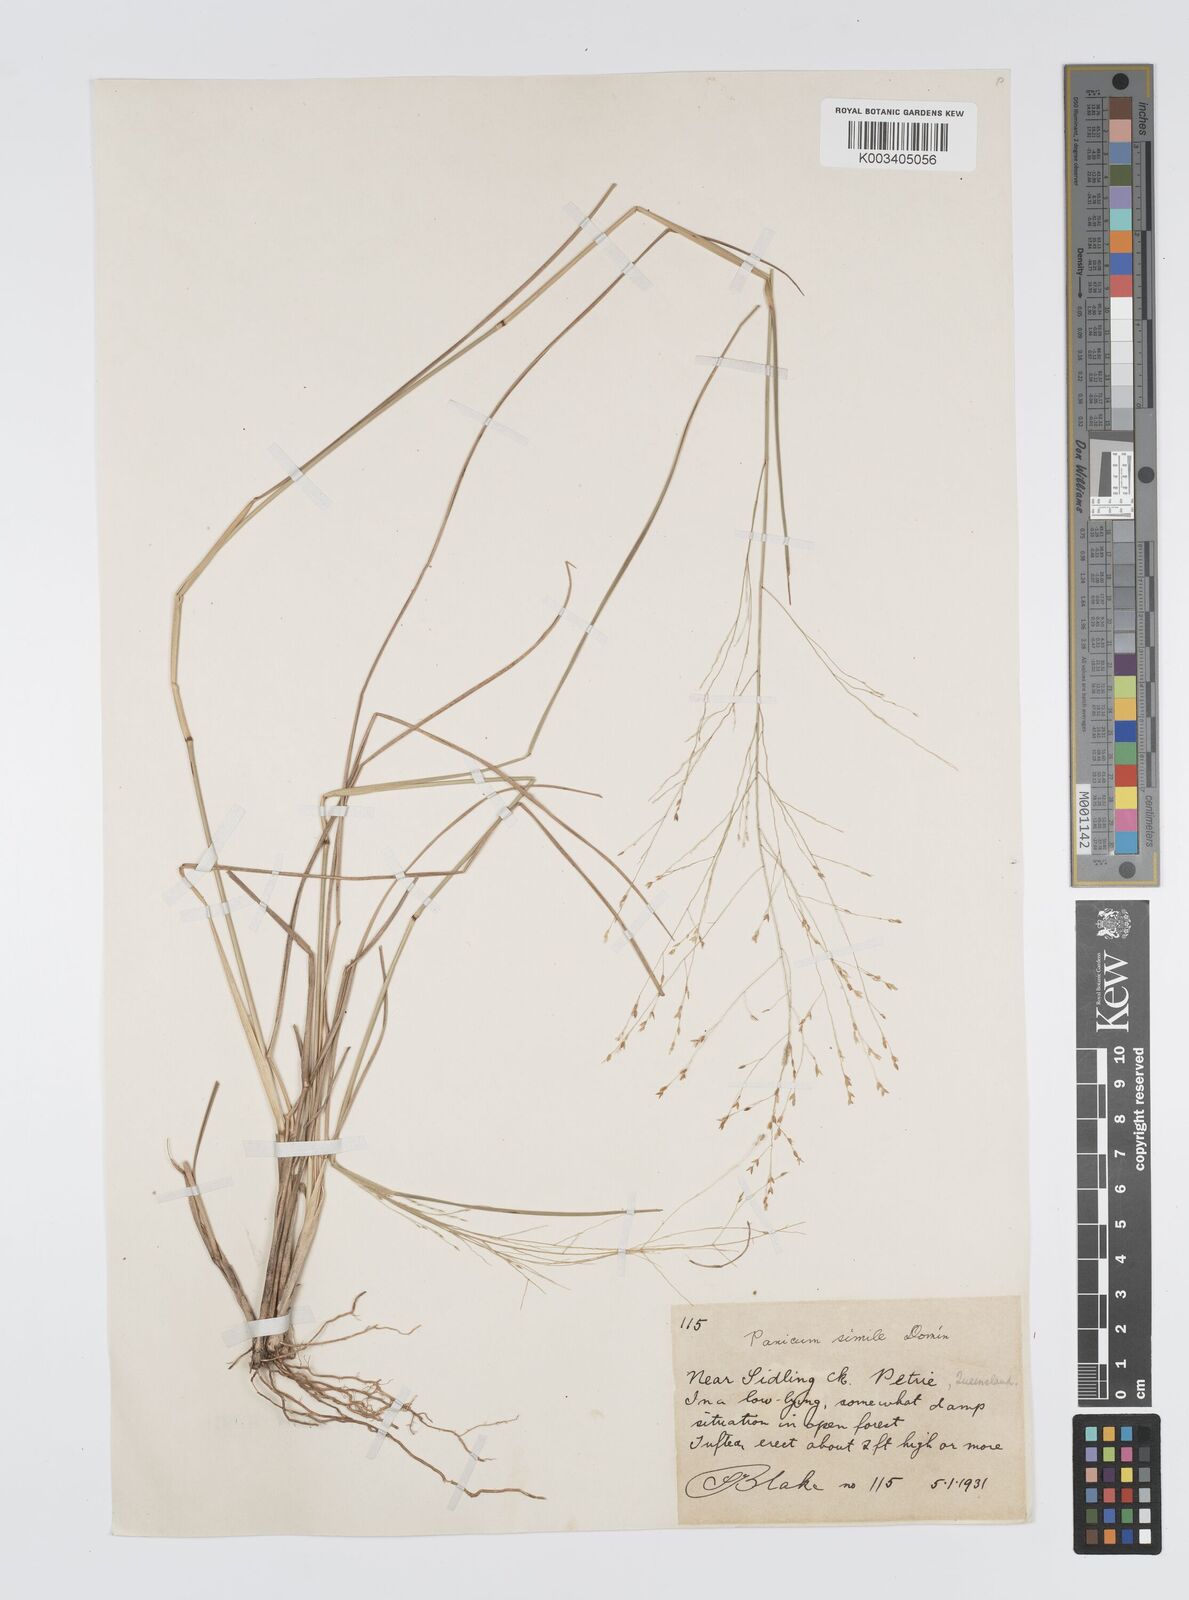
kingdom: Plantae
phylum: Tracheophyta
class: Liliopsida
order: Poales
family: Poaceae
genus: Panicum
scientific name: Panicum simile
